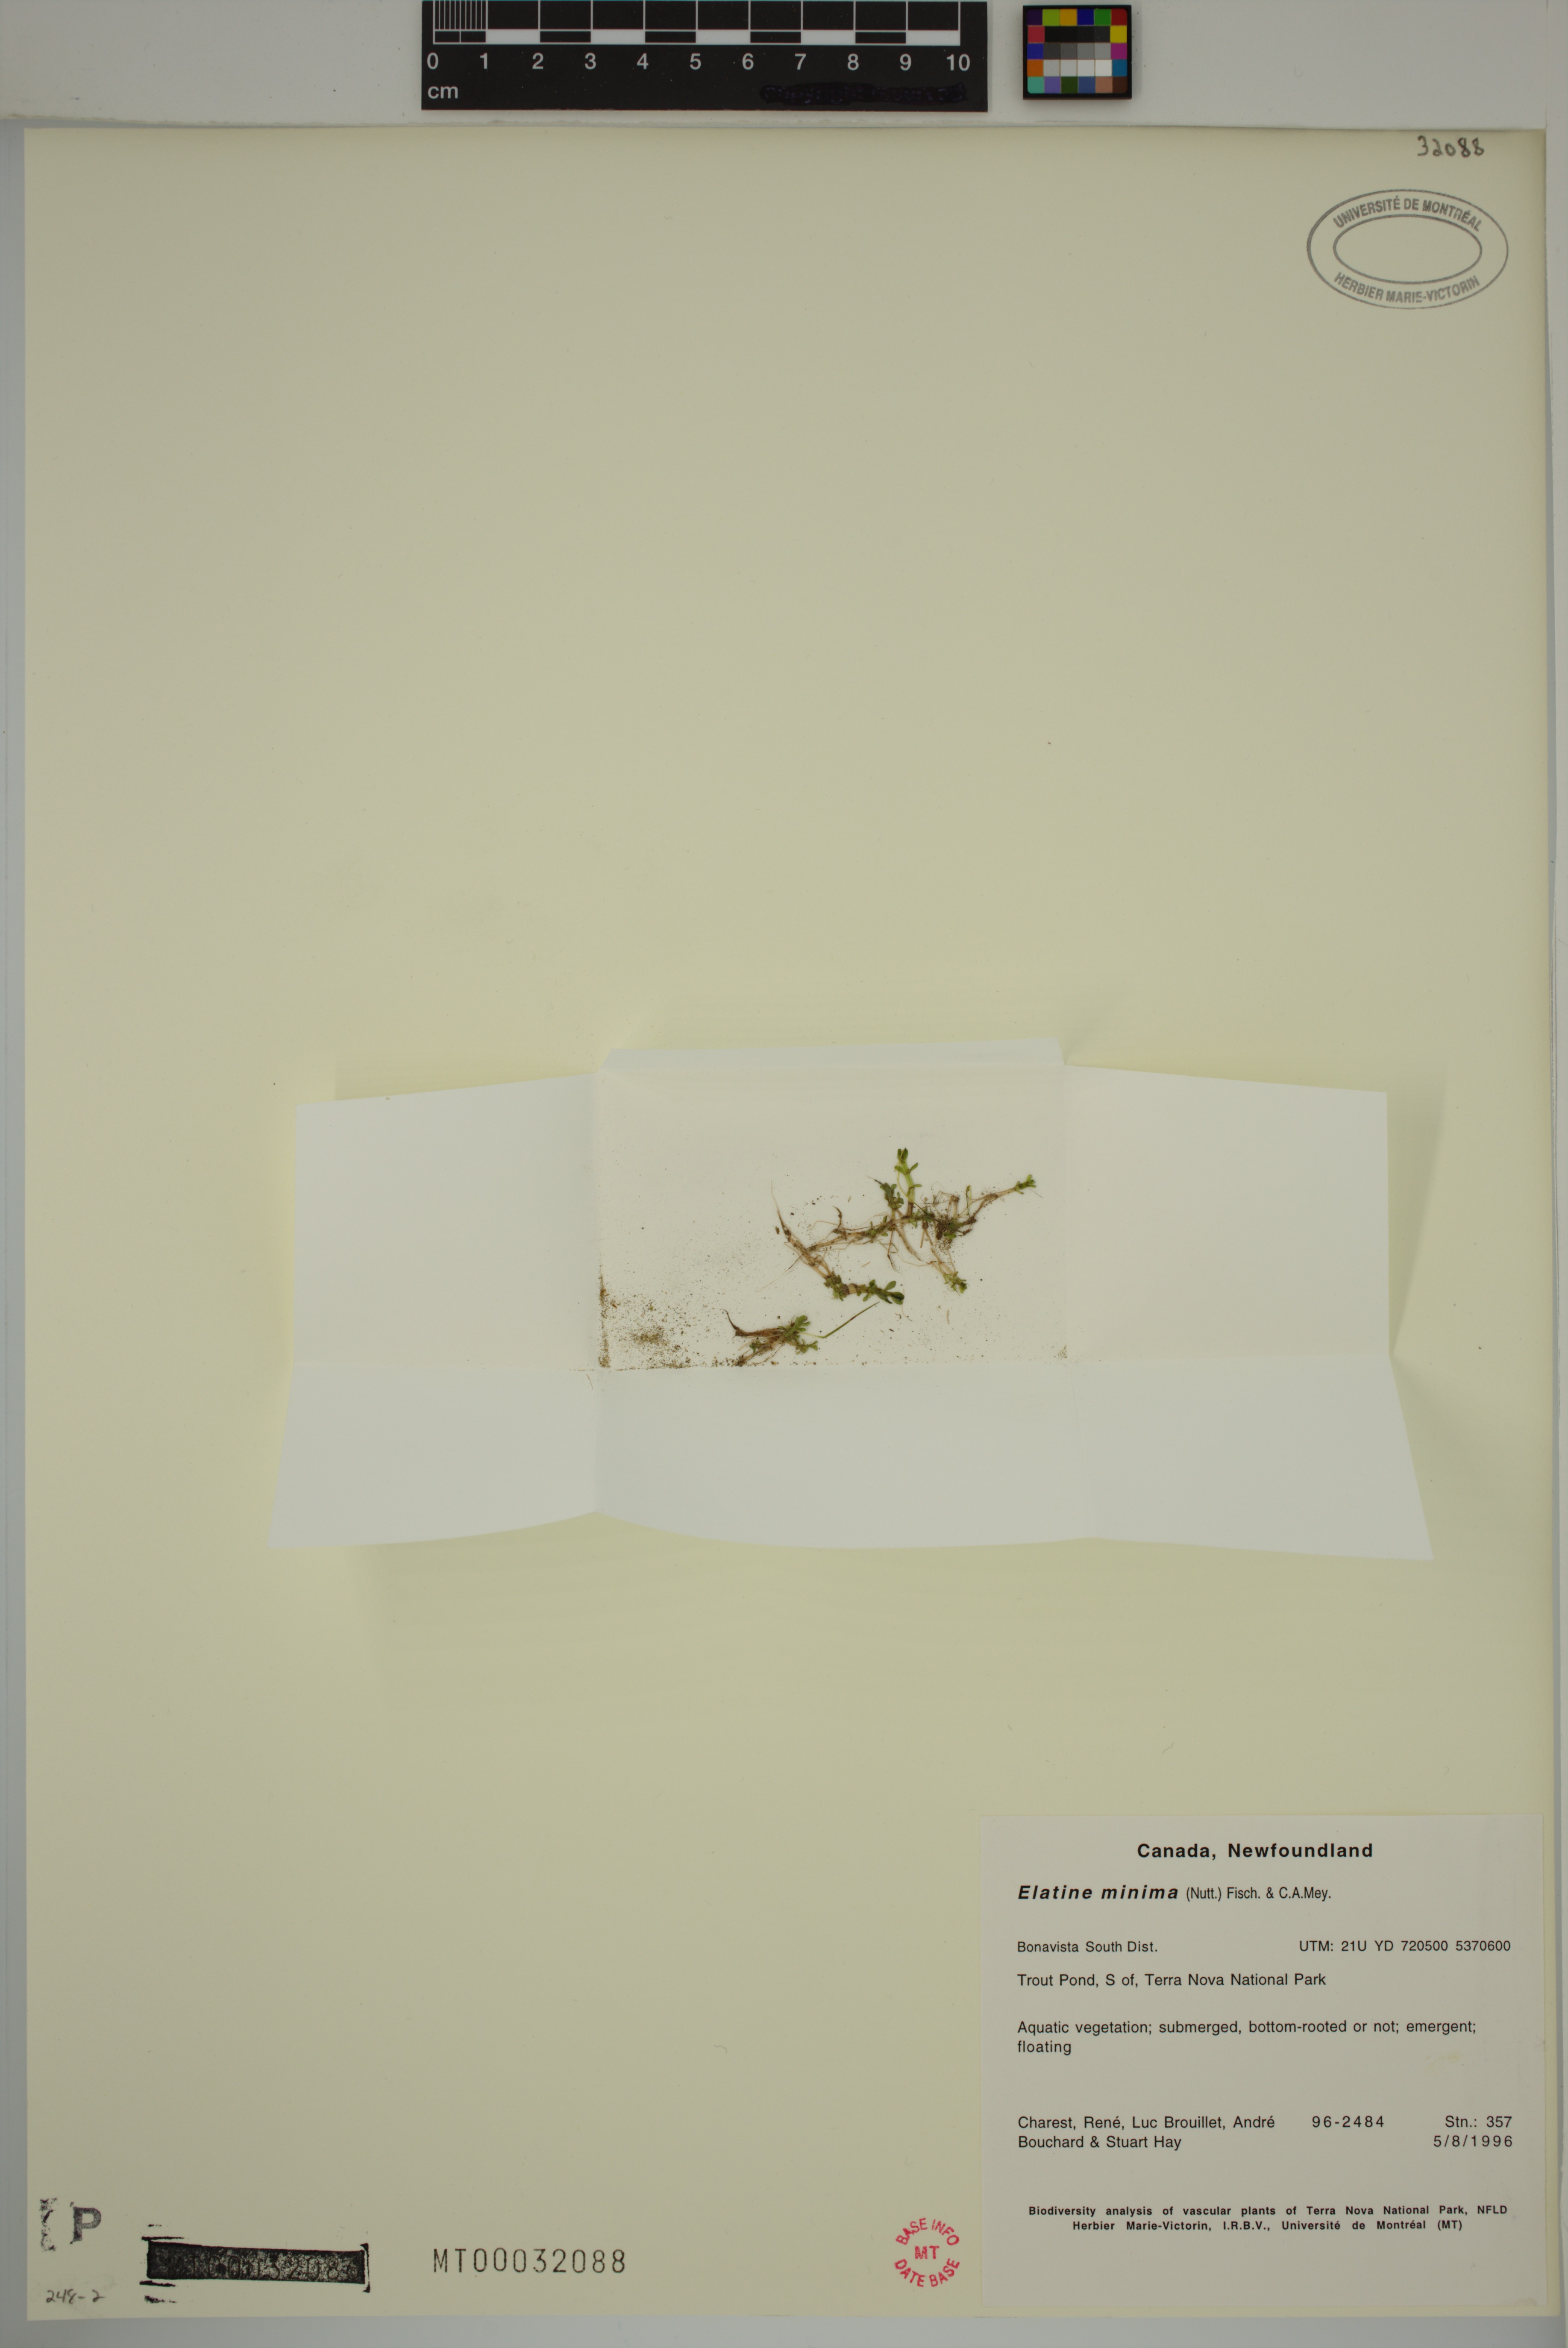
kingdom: Plantae
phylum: Tracheophyta
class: Magnoliopsida
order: Malpighiales
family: Elatinaceae
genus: Elatine
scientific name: Elatine minima
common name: Small waterwort
